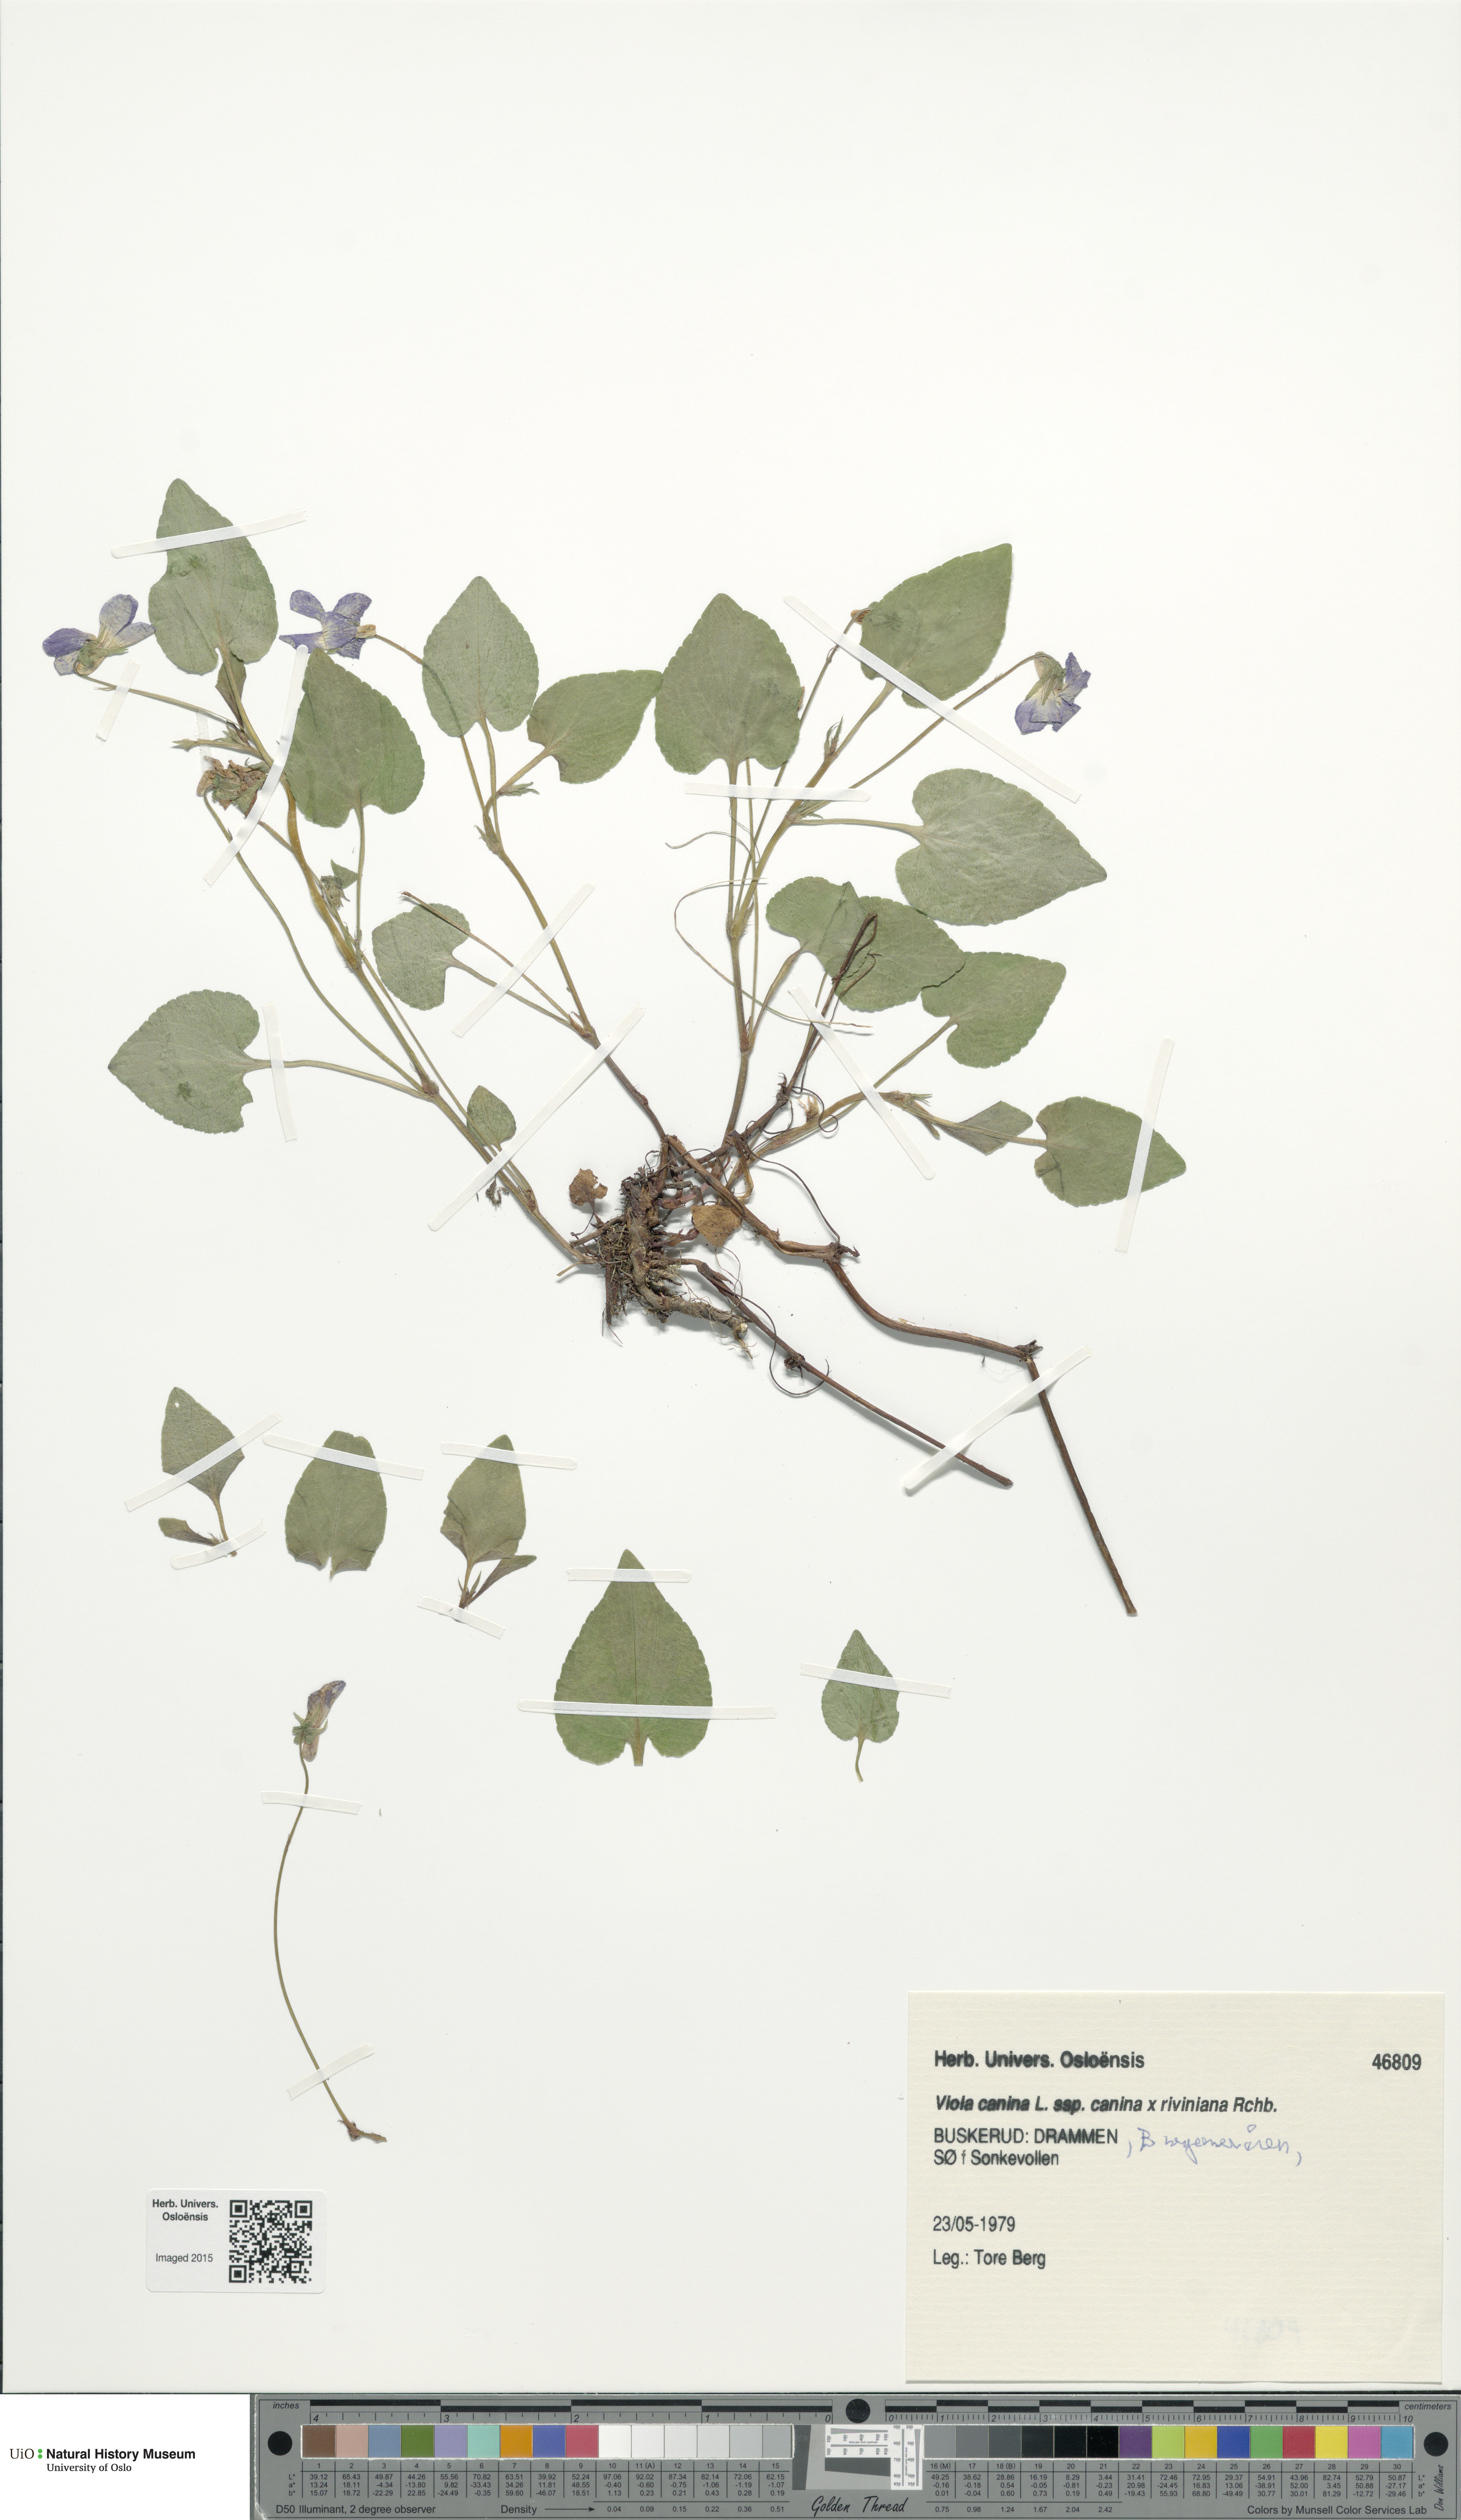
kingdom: Plantae
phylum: Tracheophyta
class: Magnoliopsida
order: Malpighiales
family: Violaceae
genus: Viola
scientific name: Viola
